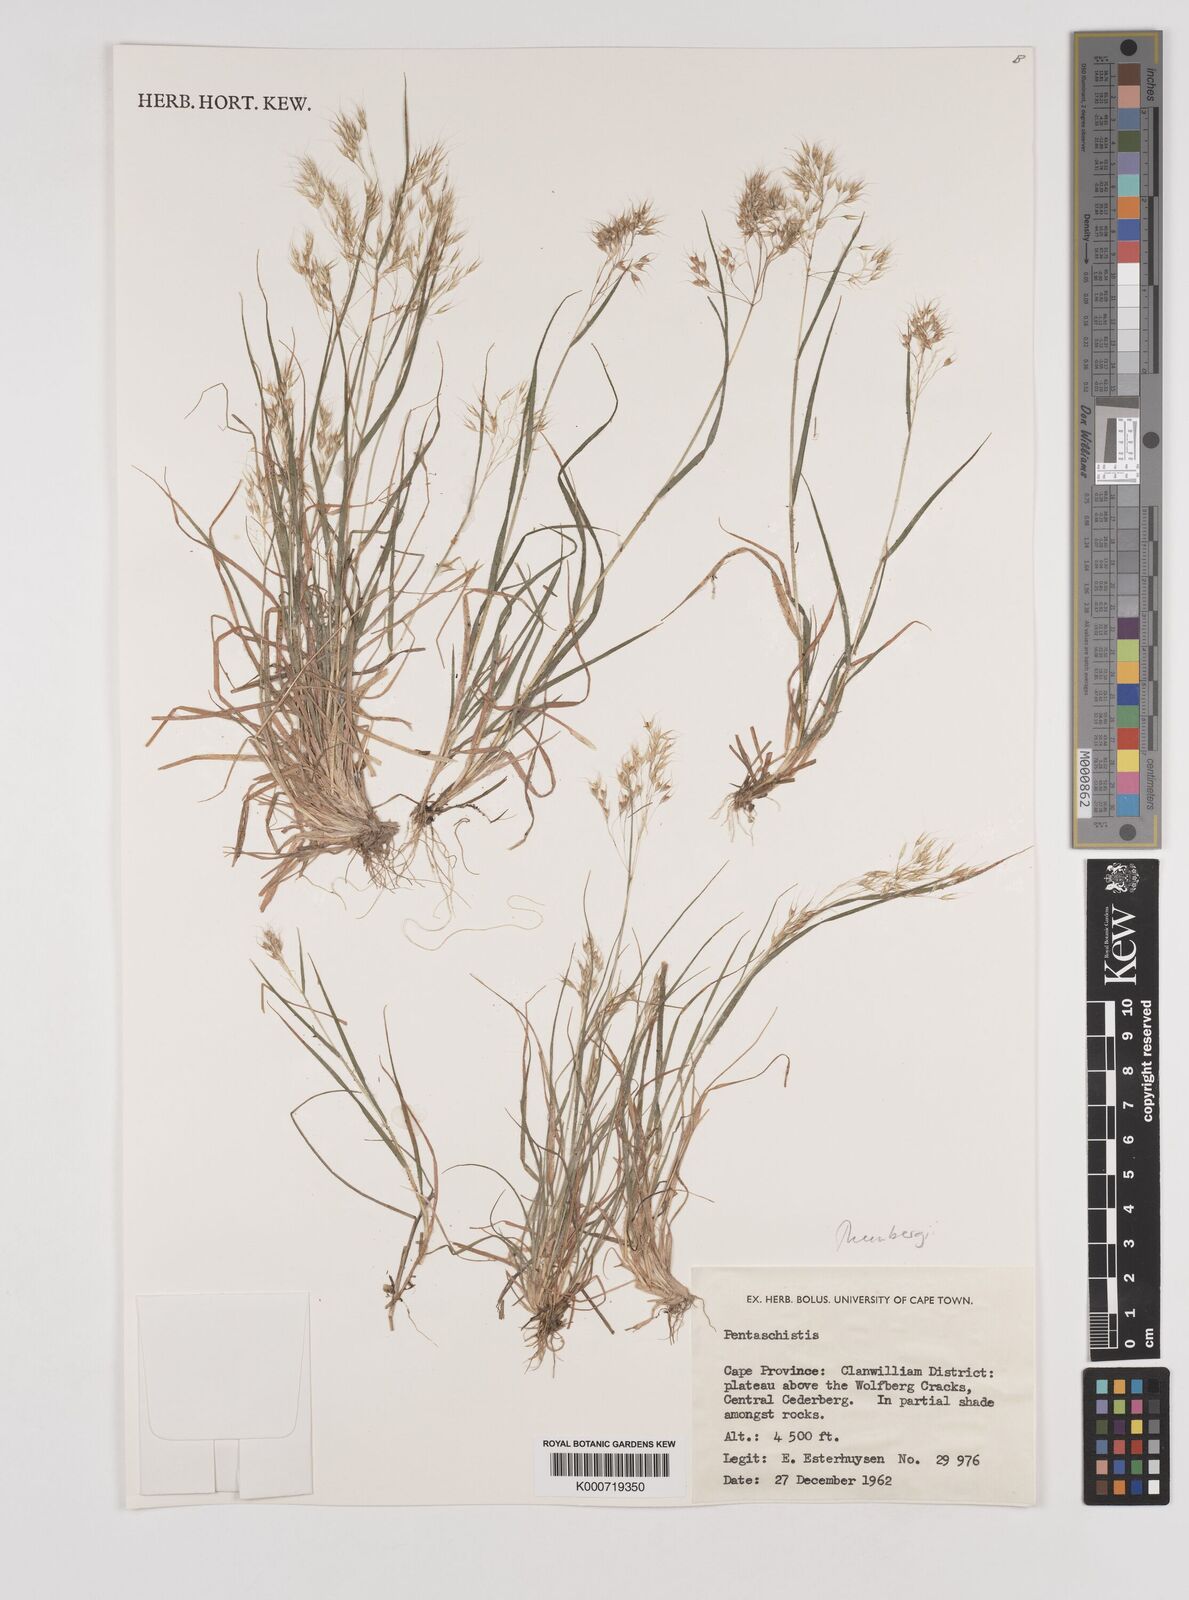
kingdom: Plantae
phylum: Tracheophyta
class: Liliopsida
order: Poales
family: Poaceae
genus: Pentameris
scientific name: Pentameris triseta
